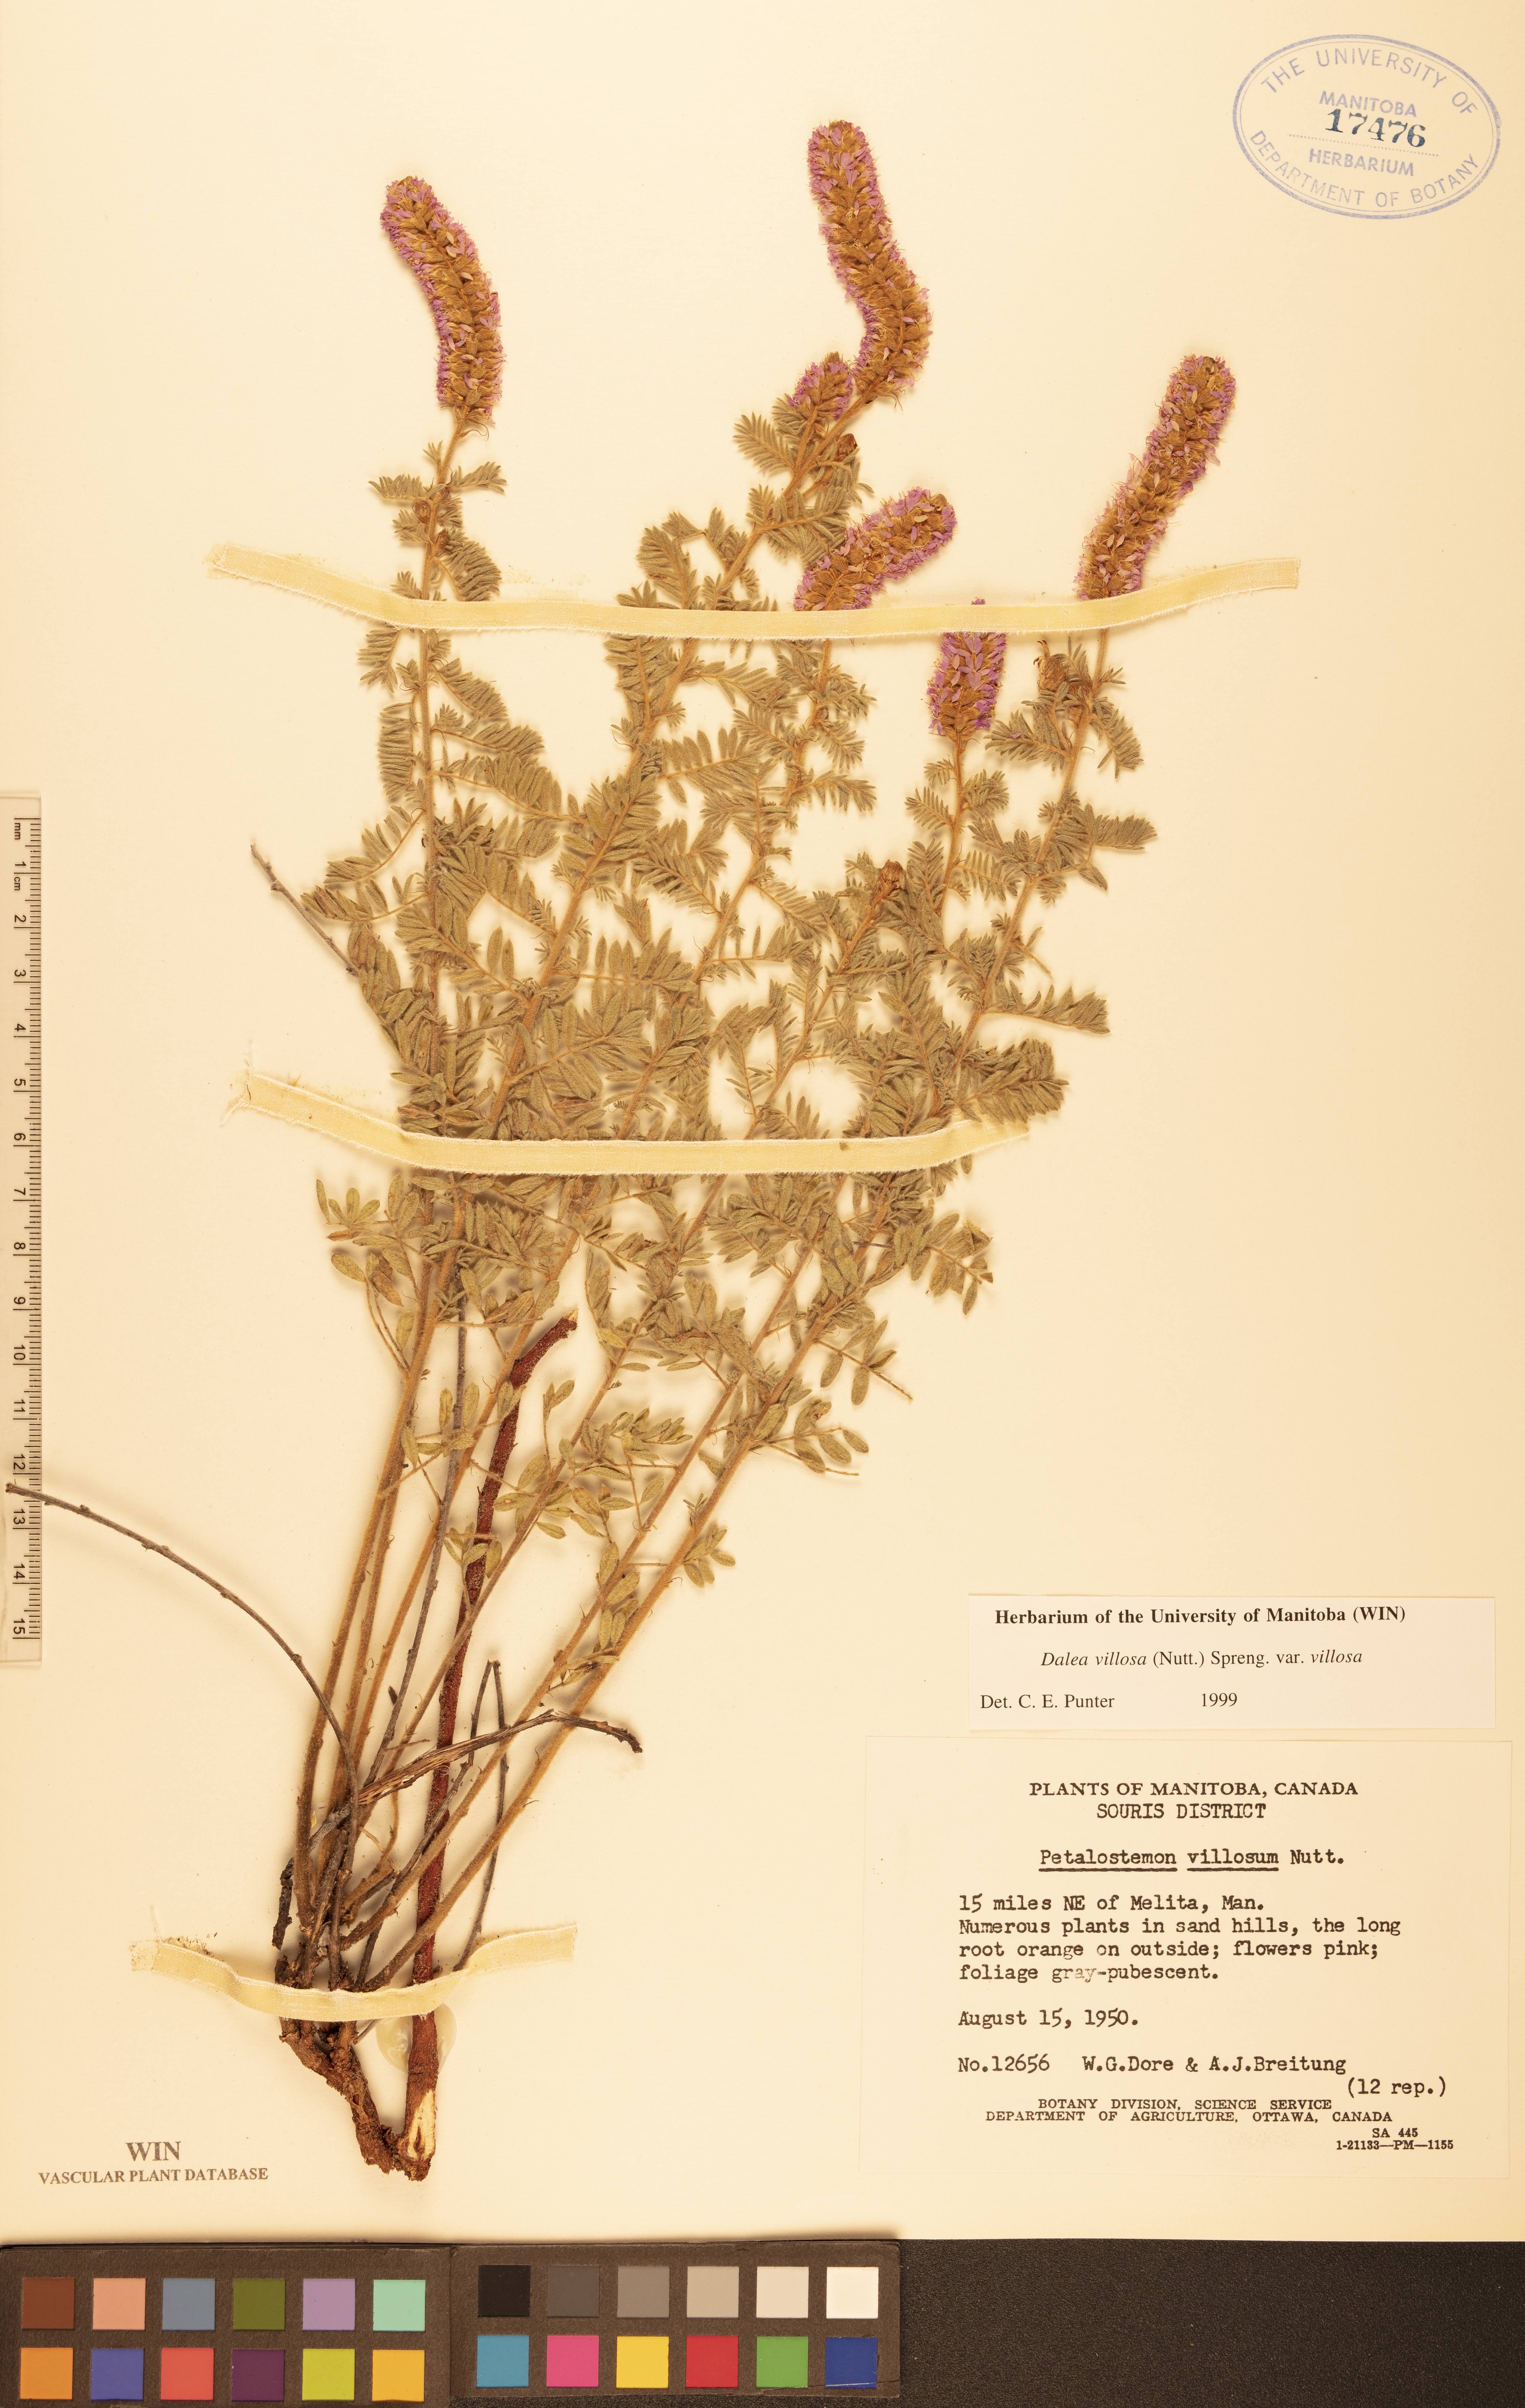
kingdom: Plantae
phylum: Tracheophyta
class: Magnoliopsida
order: Fabales
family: Fabaceae
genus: Dalea
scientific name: Dalea villosa
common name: Silky prairie-clover
